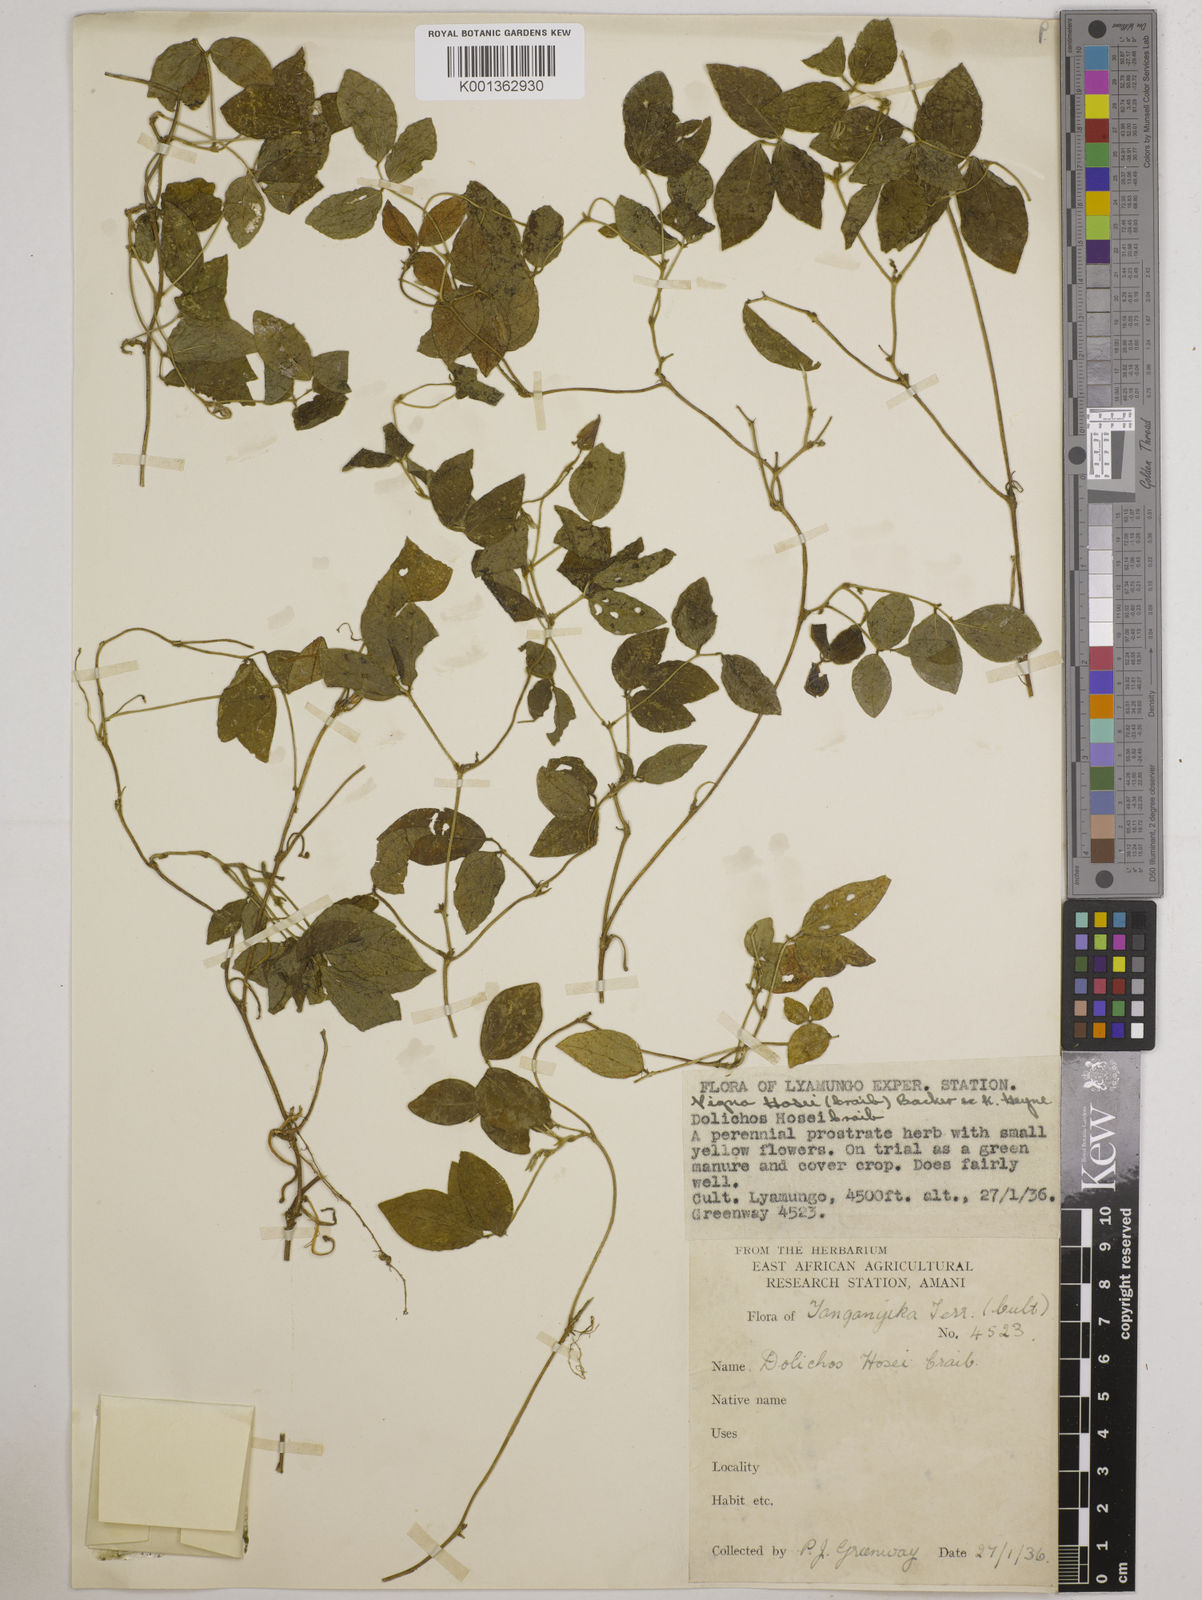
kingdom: Plantae
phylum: Tracheophyta
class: Magnoliopsida
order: Fabales
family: Fabaceae
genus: Vigna
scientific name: Vigna hosei
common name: Sarawak-bean
